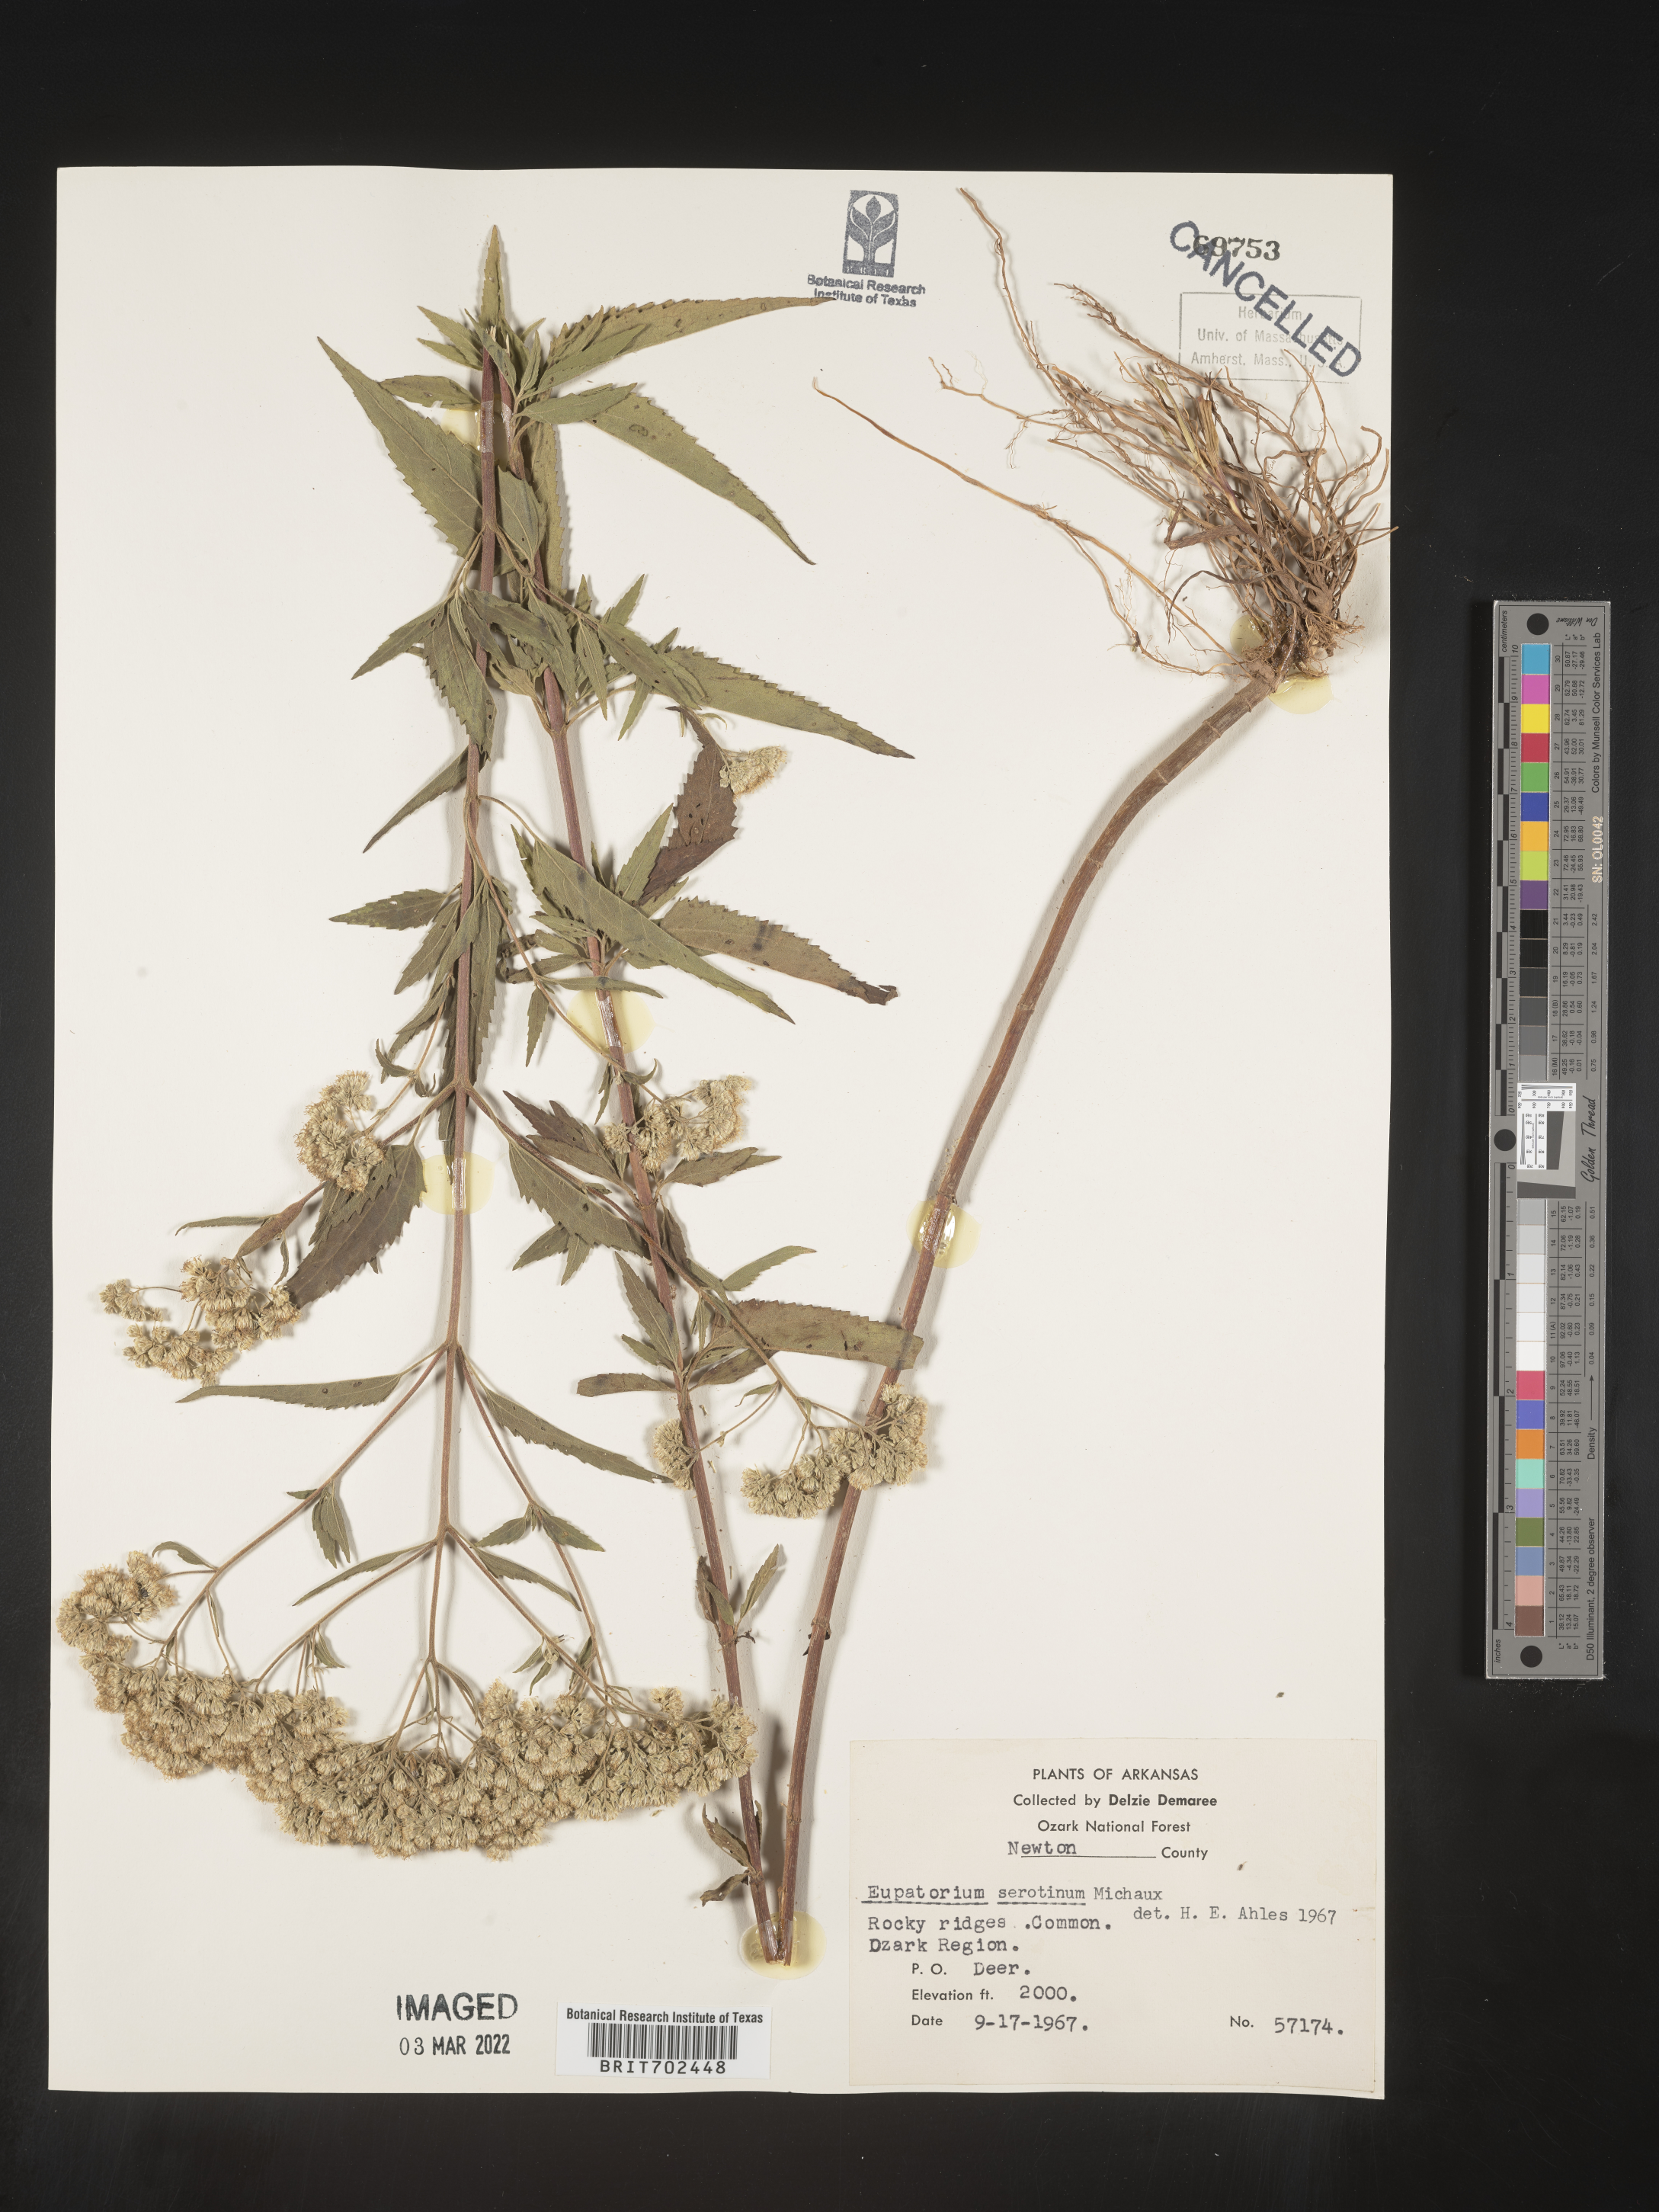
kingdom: Plantae
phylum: Tracheophyta
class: Magnoliopsida
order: Asterales
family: Asteraceae
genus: Eupatorium
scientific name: Eupatorium serotinum
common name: Late boneset
